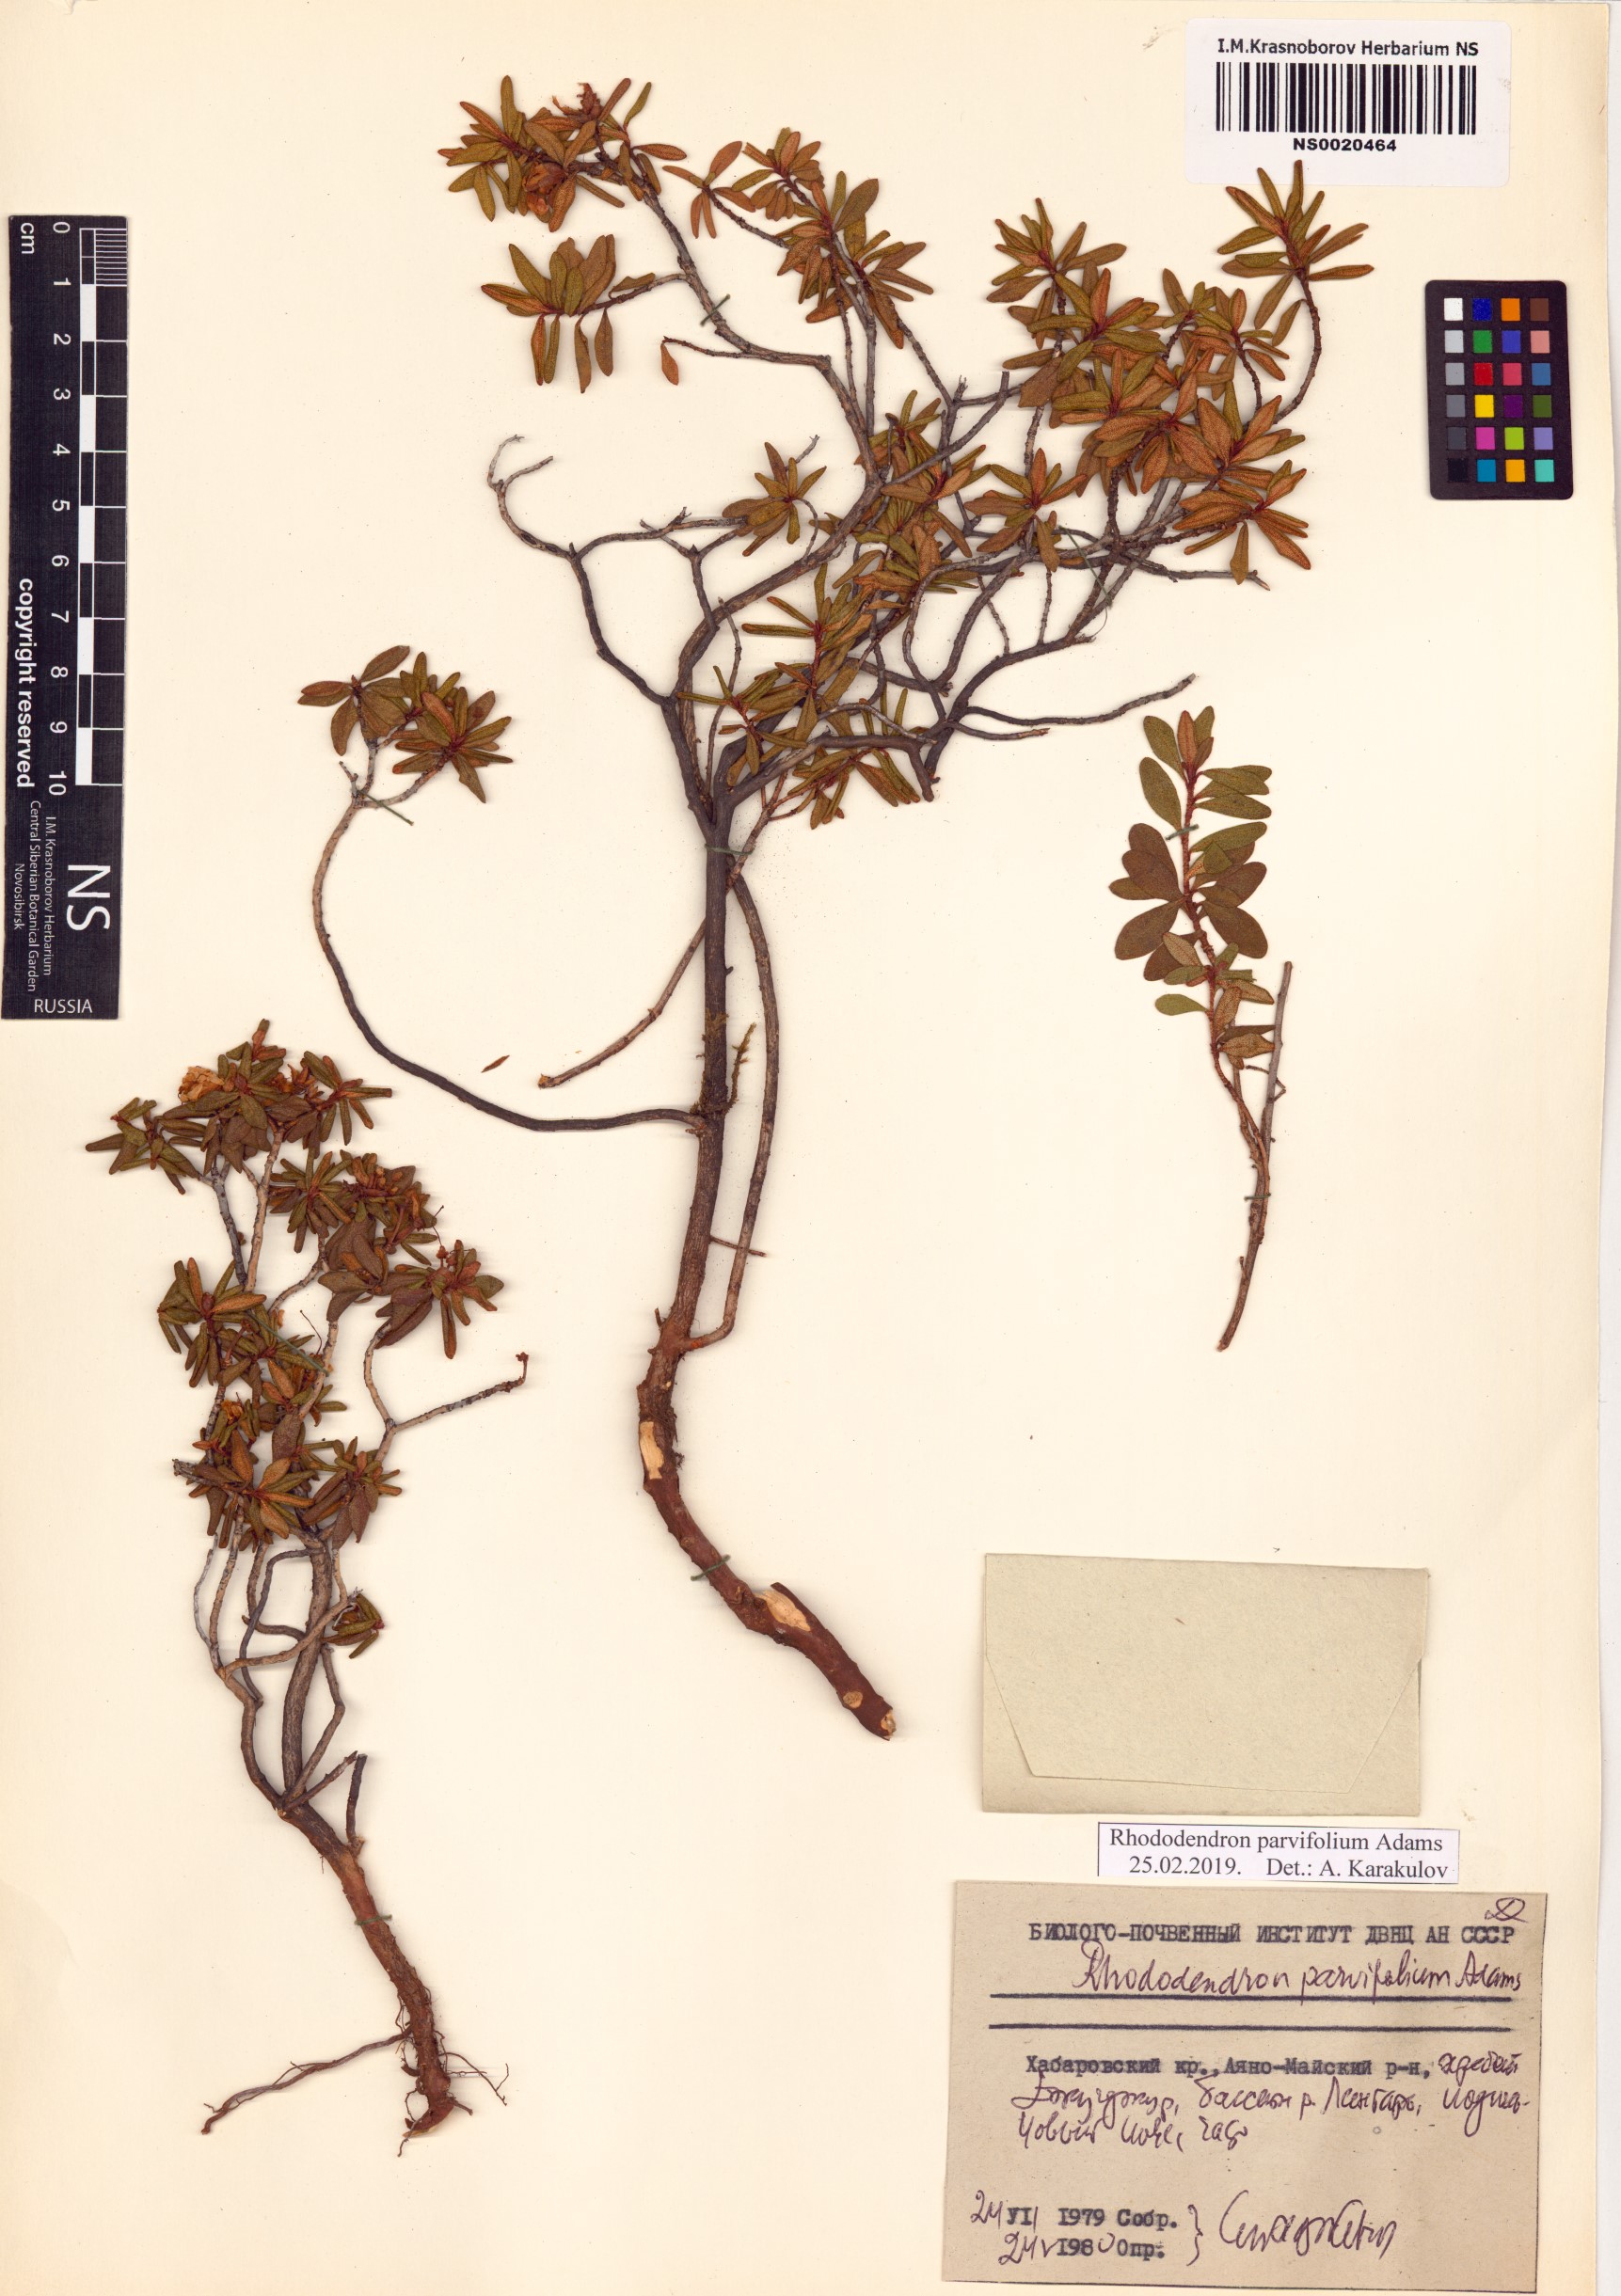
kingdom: Plantae
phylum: Tracheophyta
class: Magnoliopsida
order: Ericales
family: Ericaceae
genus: Rhododendron
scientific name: Rhododendron parvifolium
